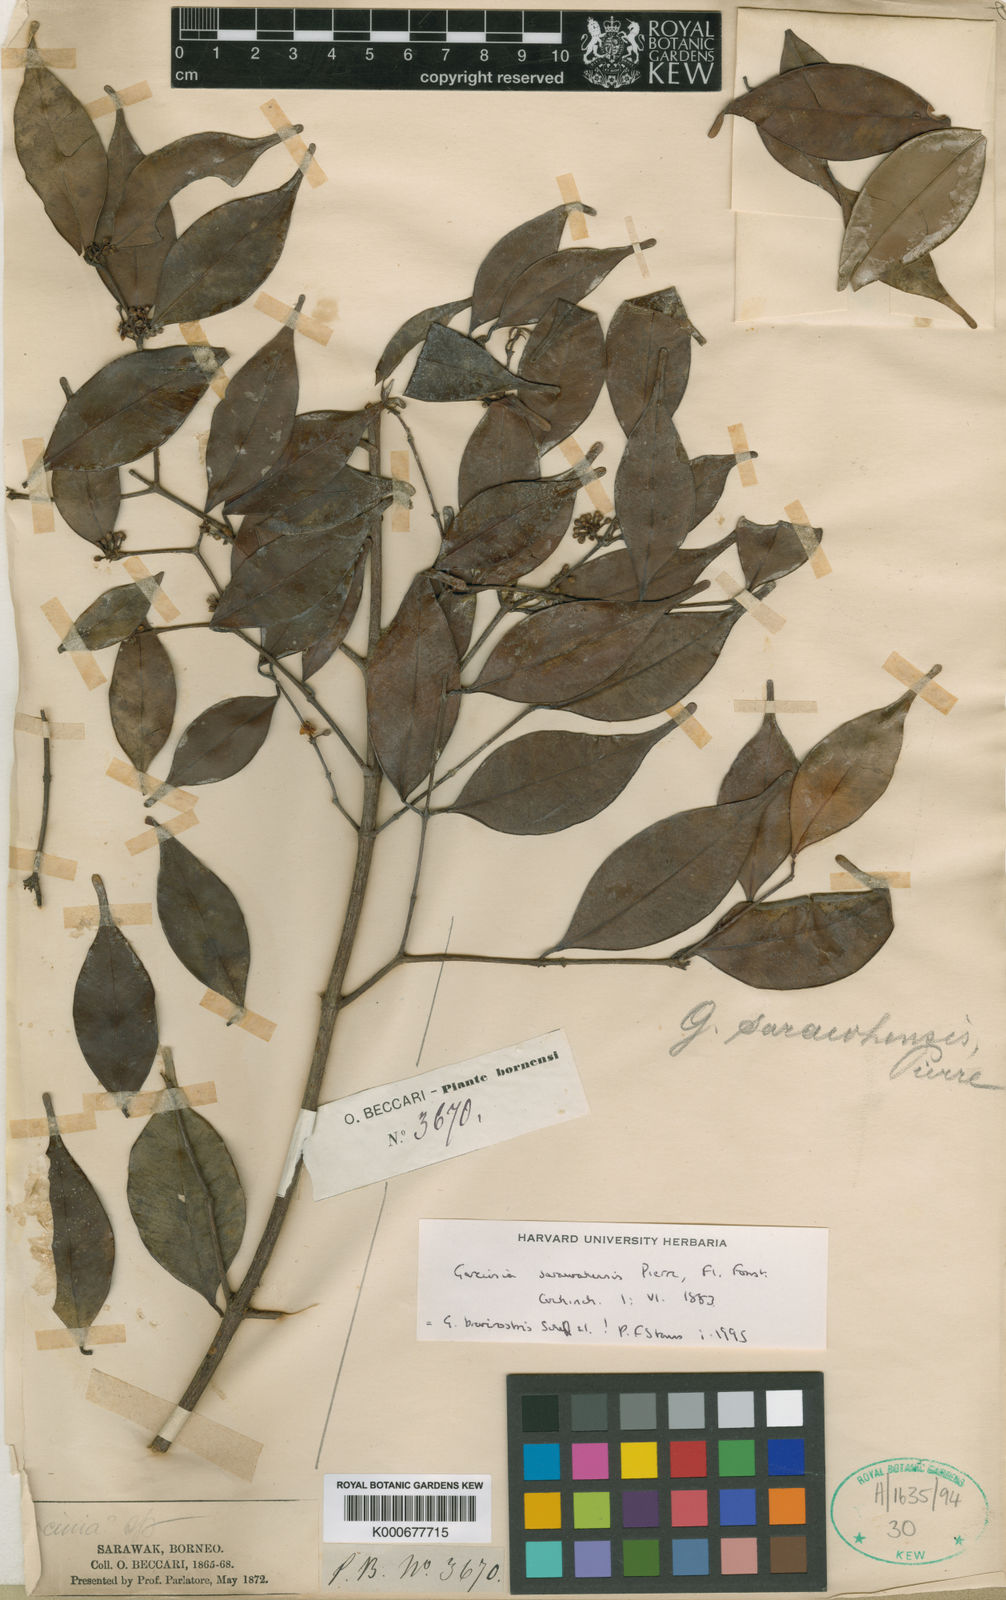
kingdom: Plantae
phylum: Tracheophyta
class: Magnoliopsida
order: Malpighiales
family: Clusiaceae
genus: Garcinia
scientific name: Garcinia sarawhensis
